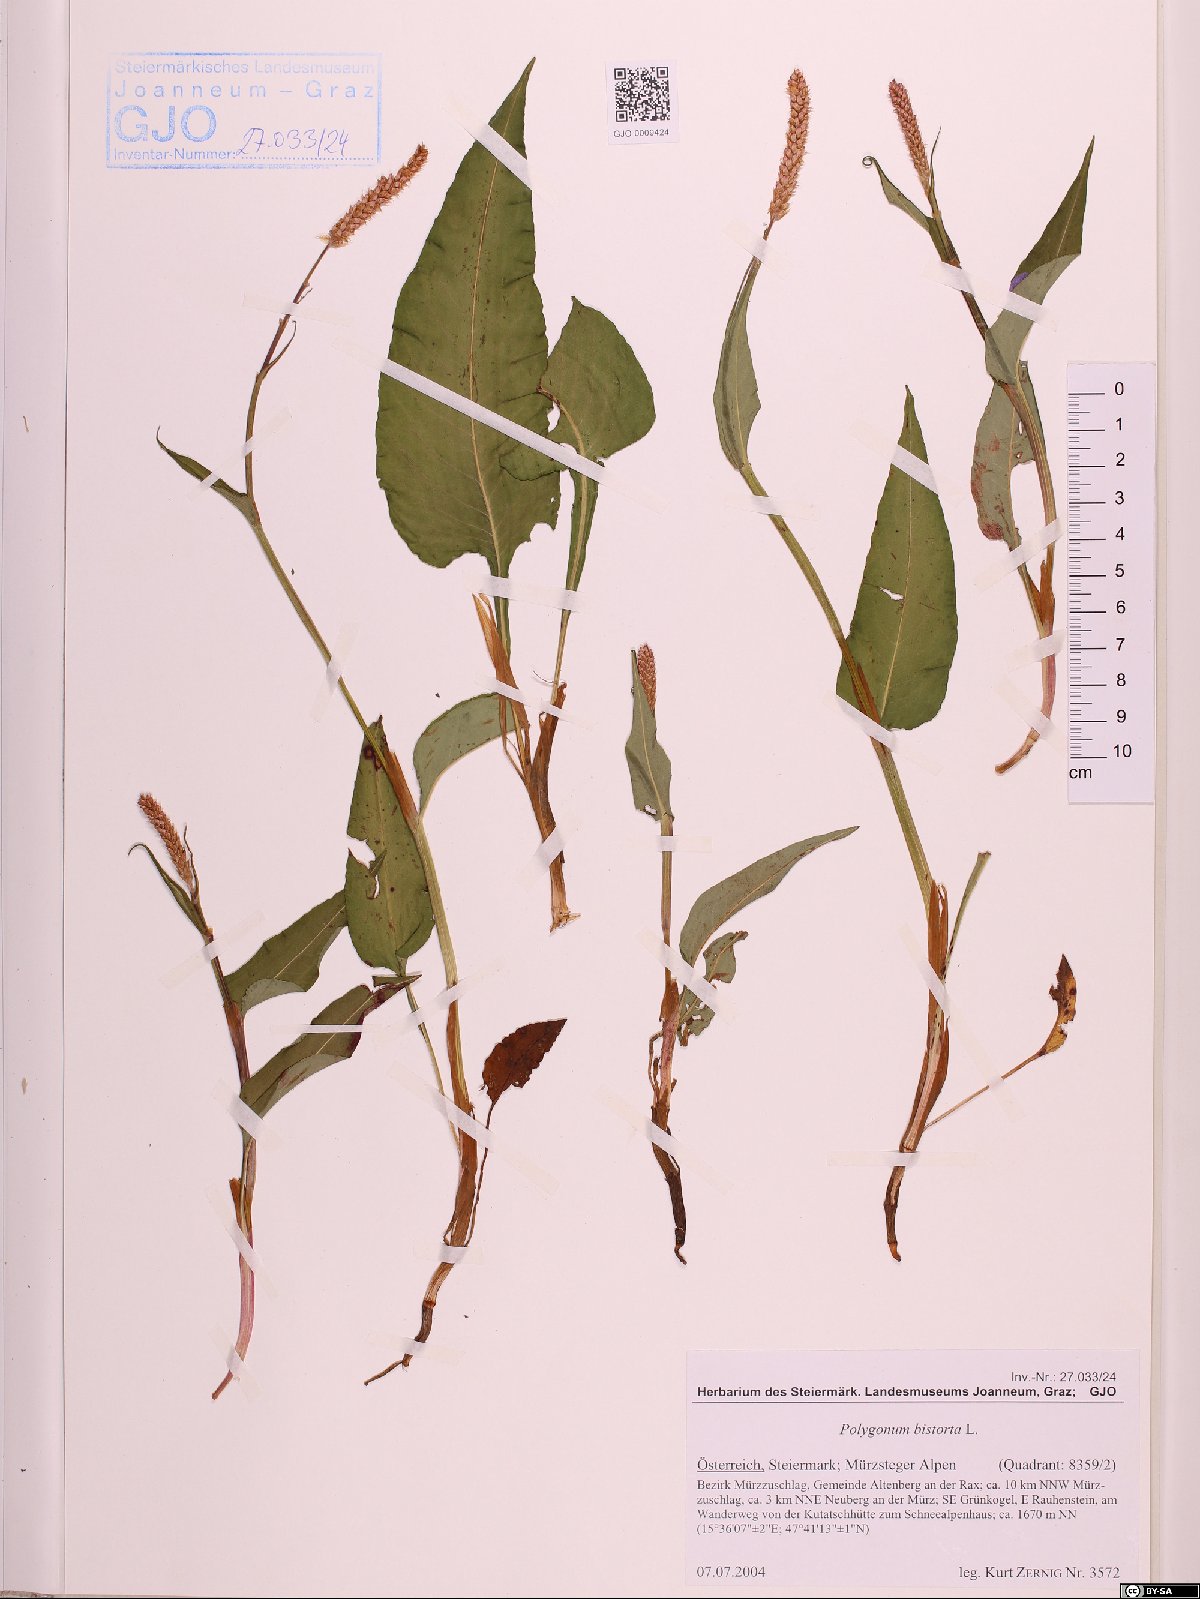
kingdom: Plantae
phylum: Tracheophyta
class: Magnoliopsida
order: Caryophyllales
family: Polygonaceae
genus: Bistorta
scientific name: Bistorta officinalis
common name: Common bistort
